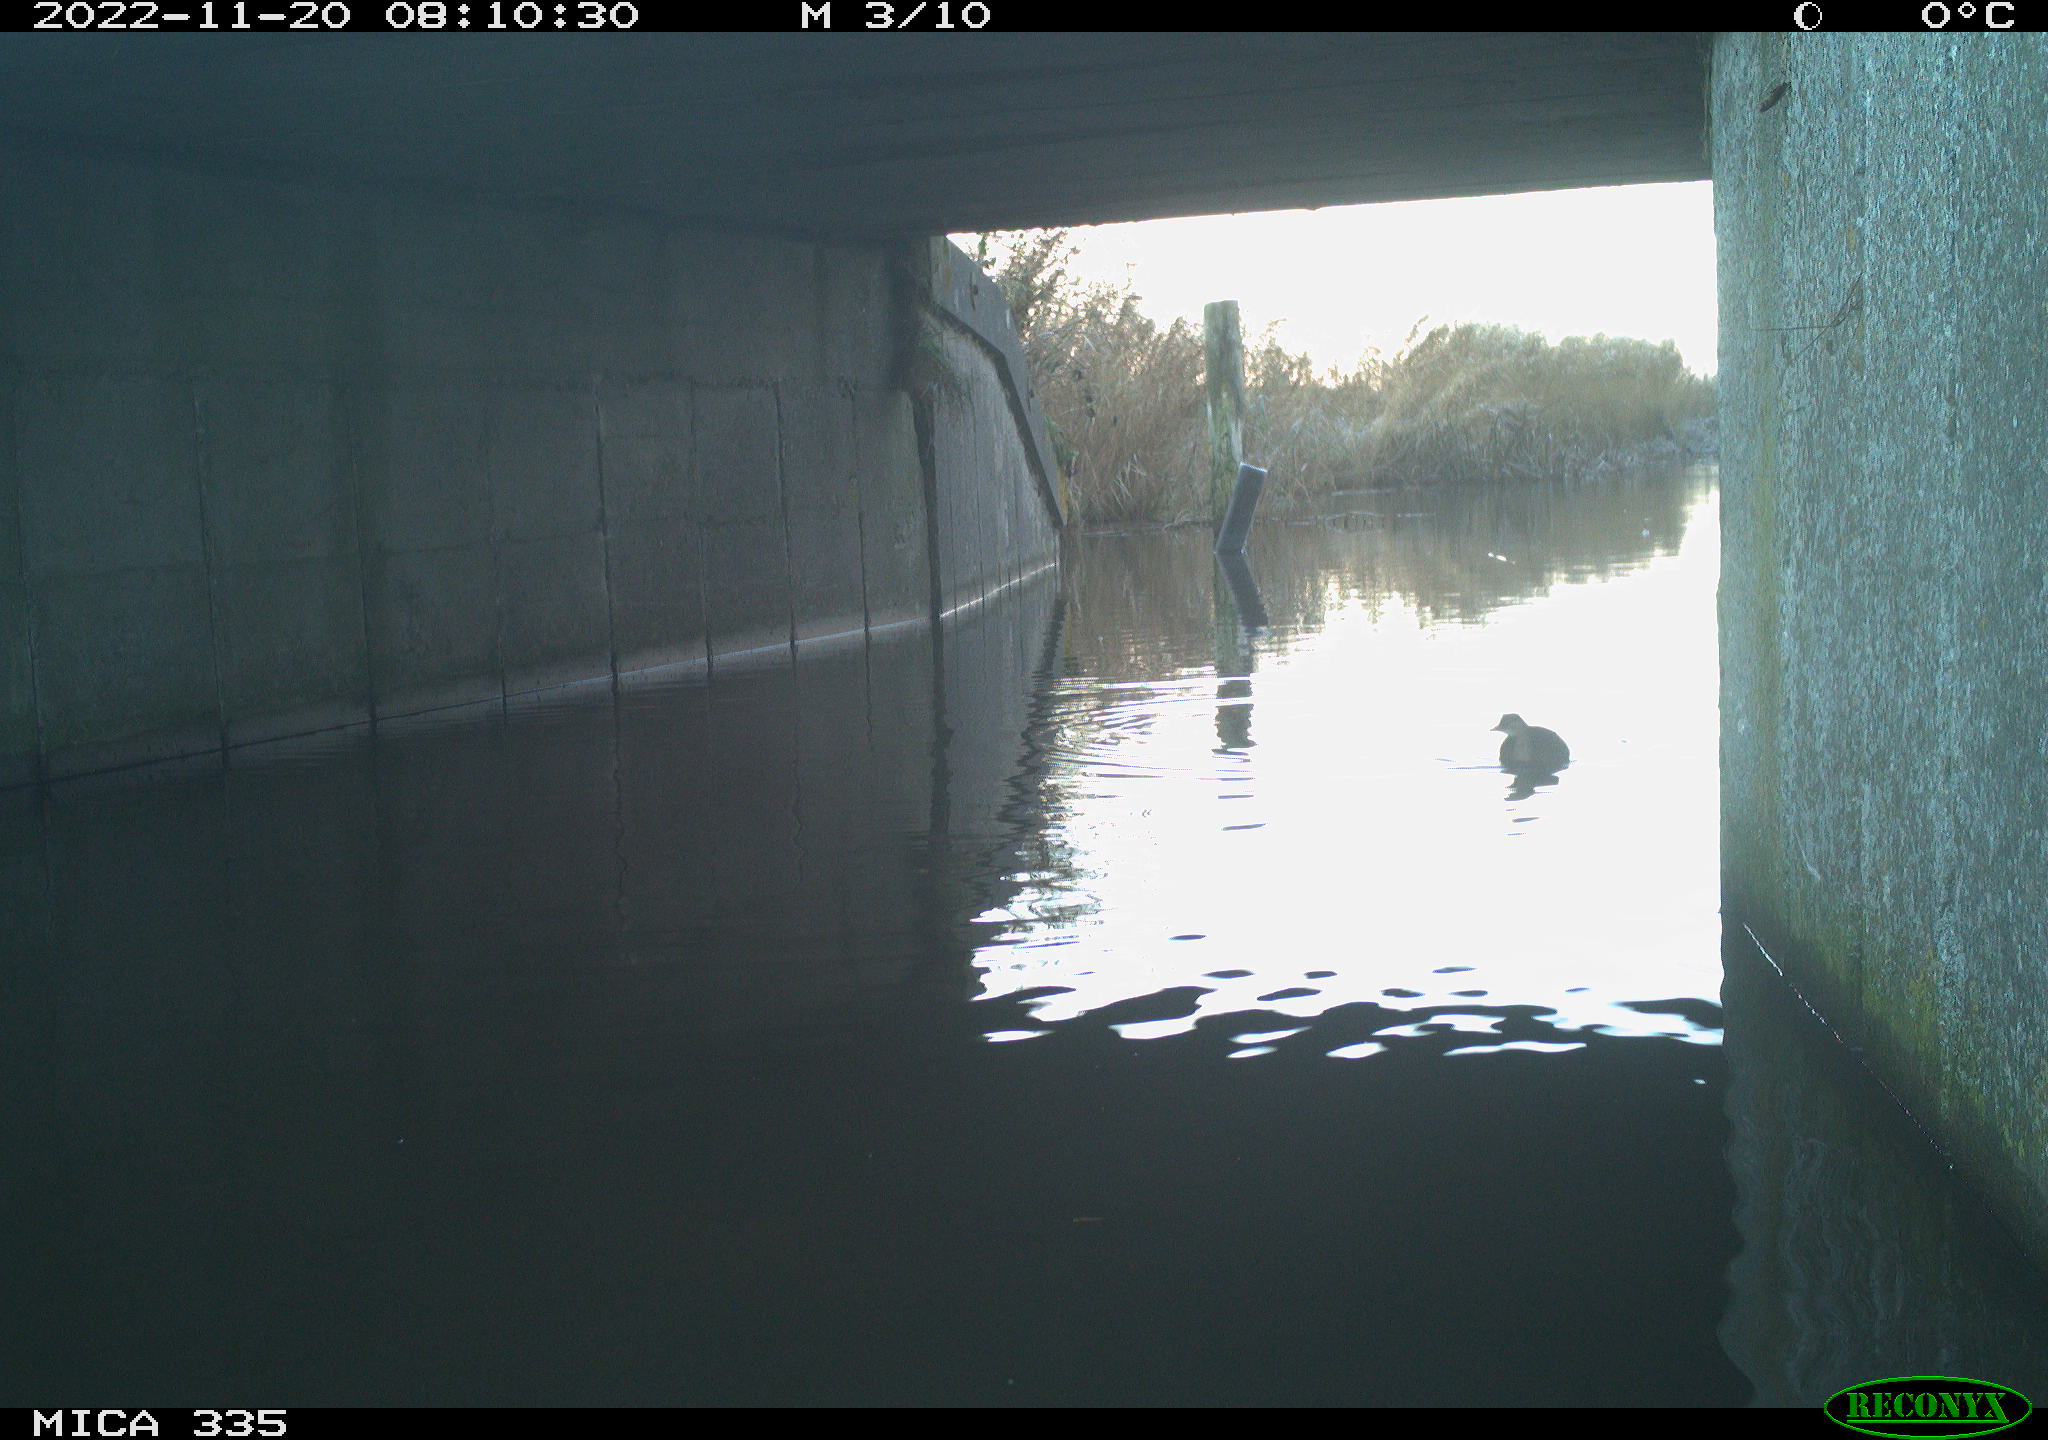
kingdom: Animalia
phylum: Chordata
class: Aves
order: Podicipediformes
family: Podicipedidae
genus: Tachybaptus
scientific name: Tachybaptus ruficollis
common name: Little grebe
